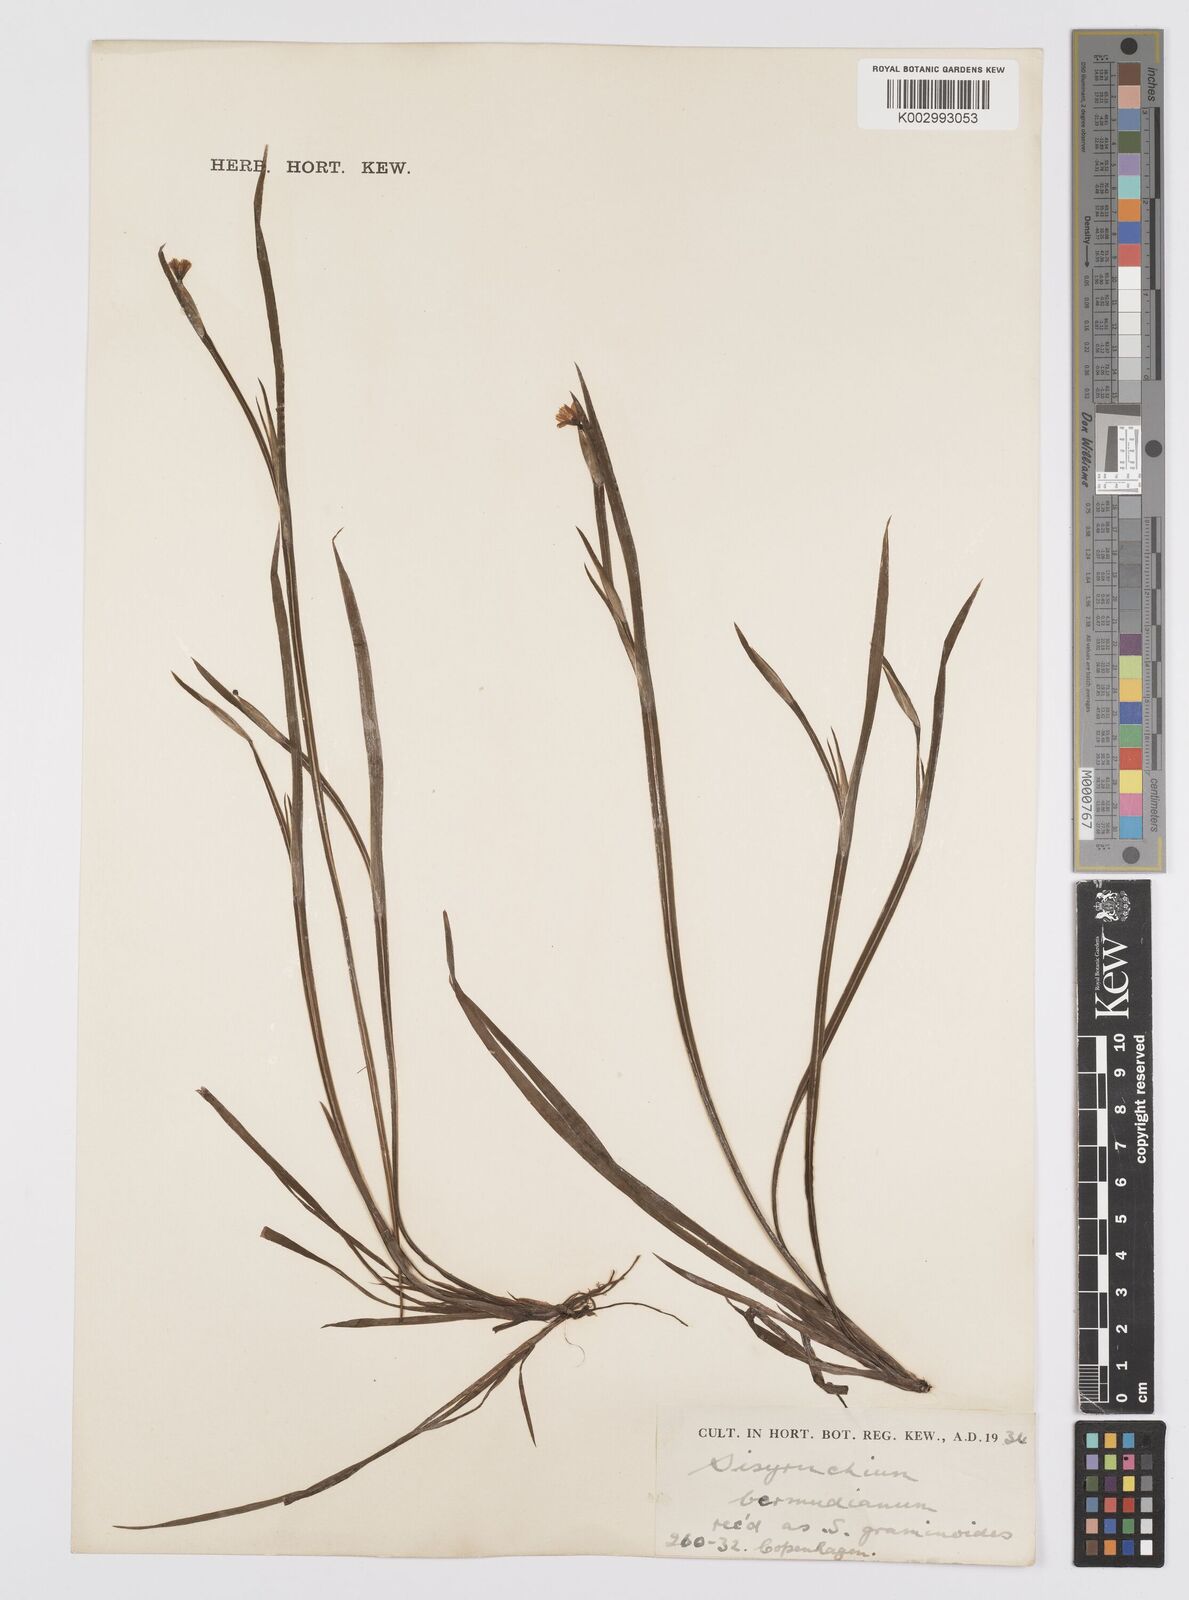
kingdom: Plantae
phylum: Tracheophyta
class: Liliopsida
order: Asparagales
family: Iridaceae
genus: Sisyrinchium
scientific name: Sisyrinchium bermudiana
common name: Blue-eyed-grass
